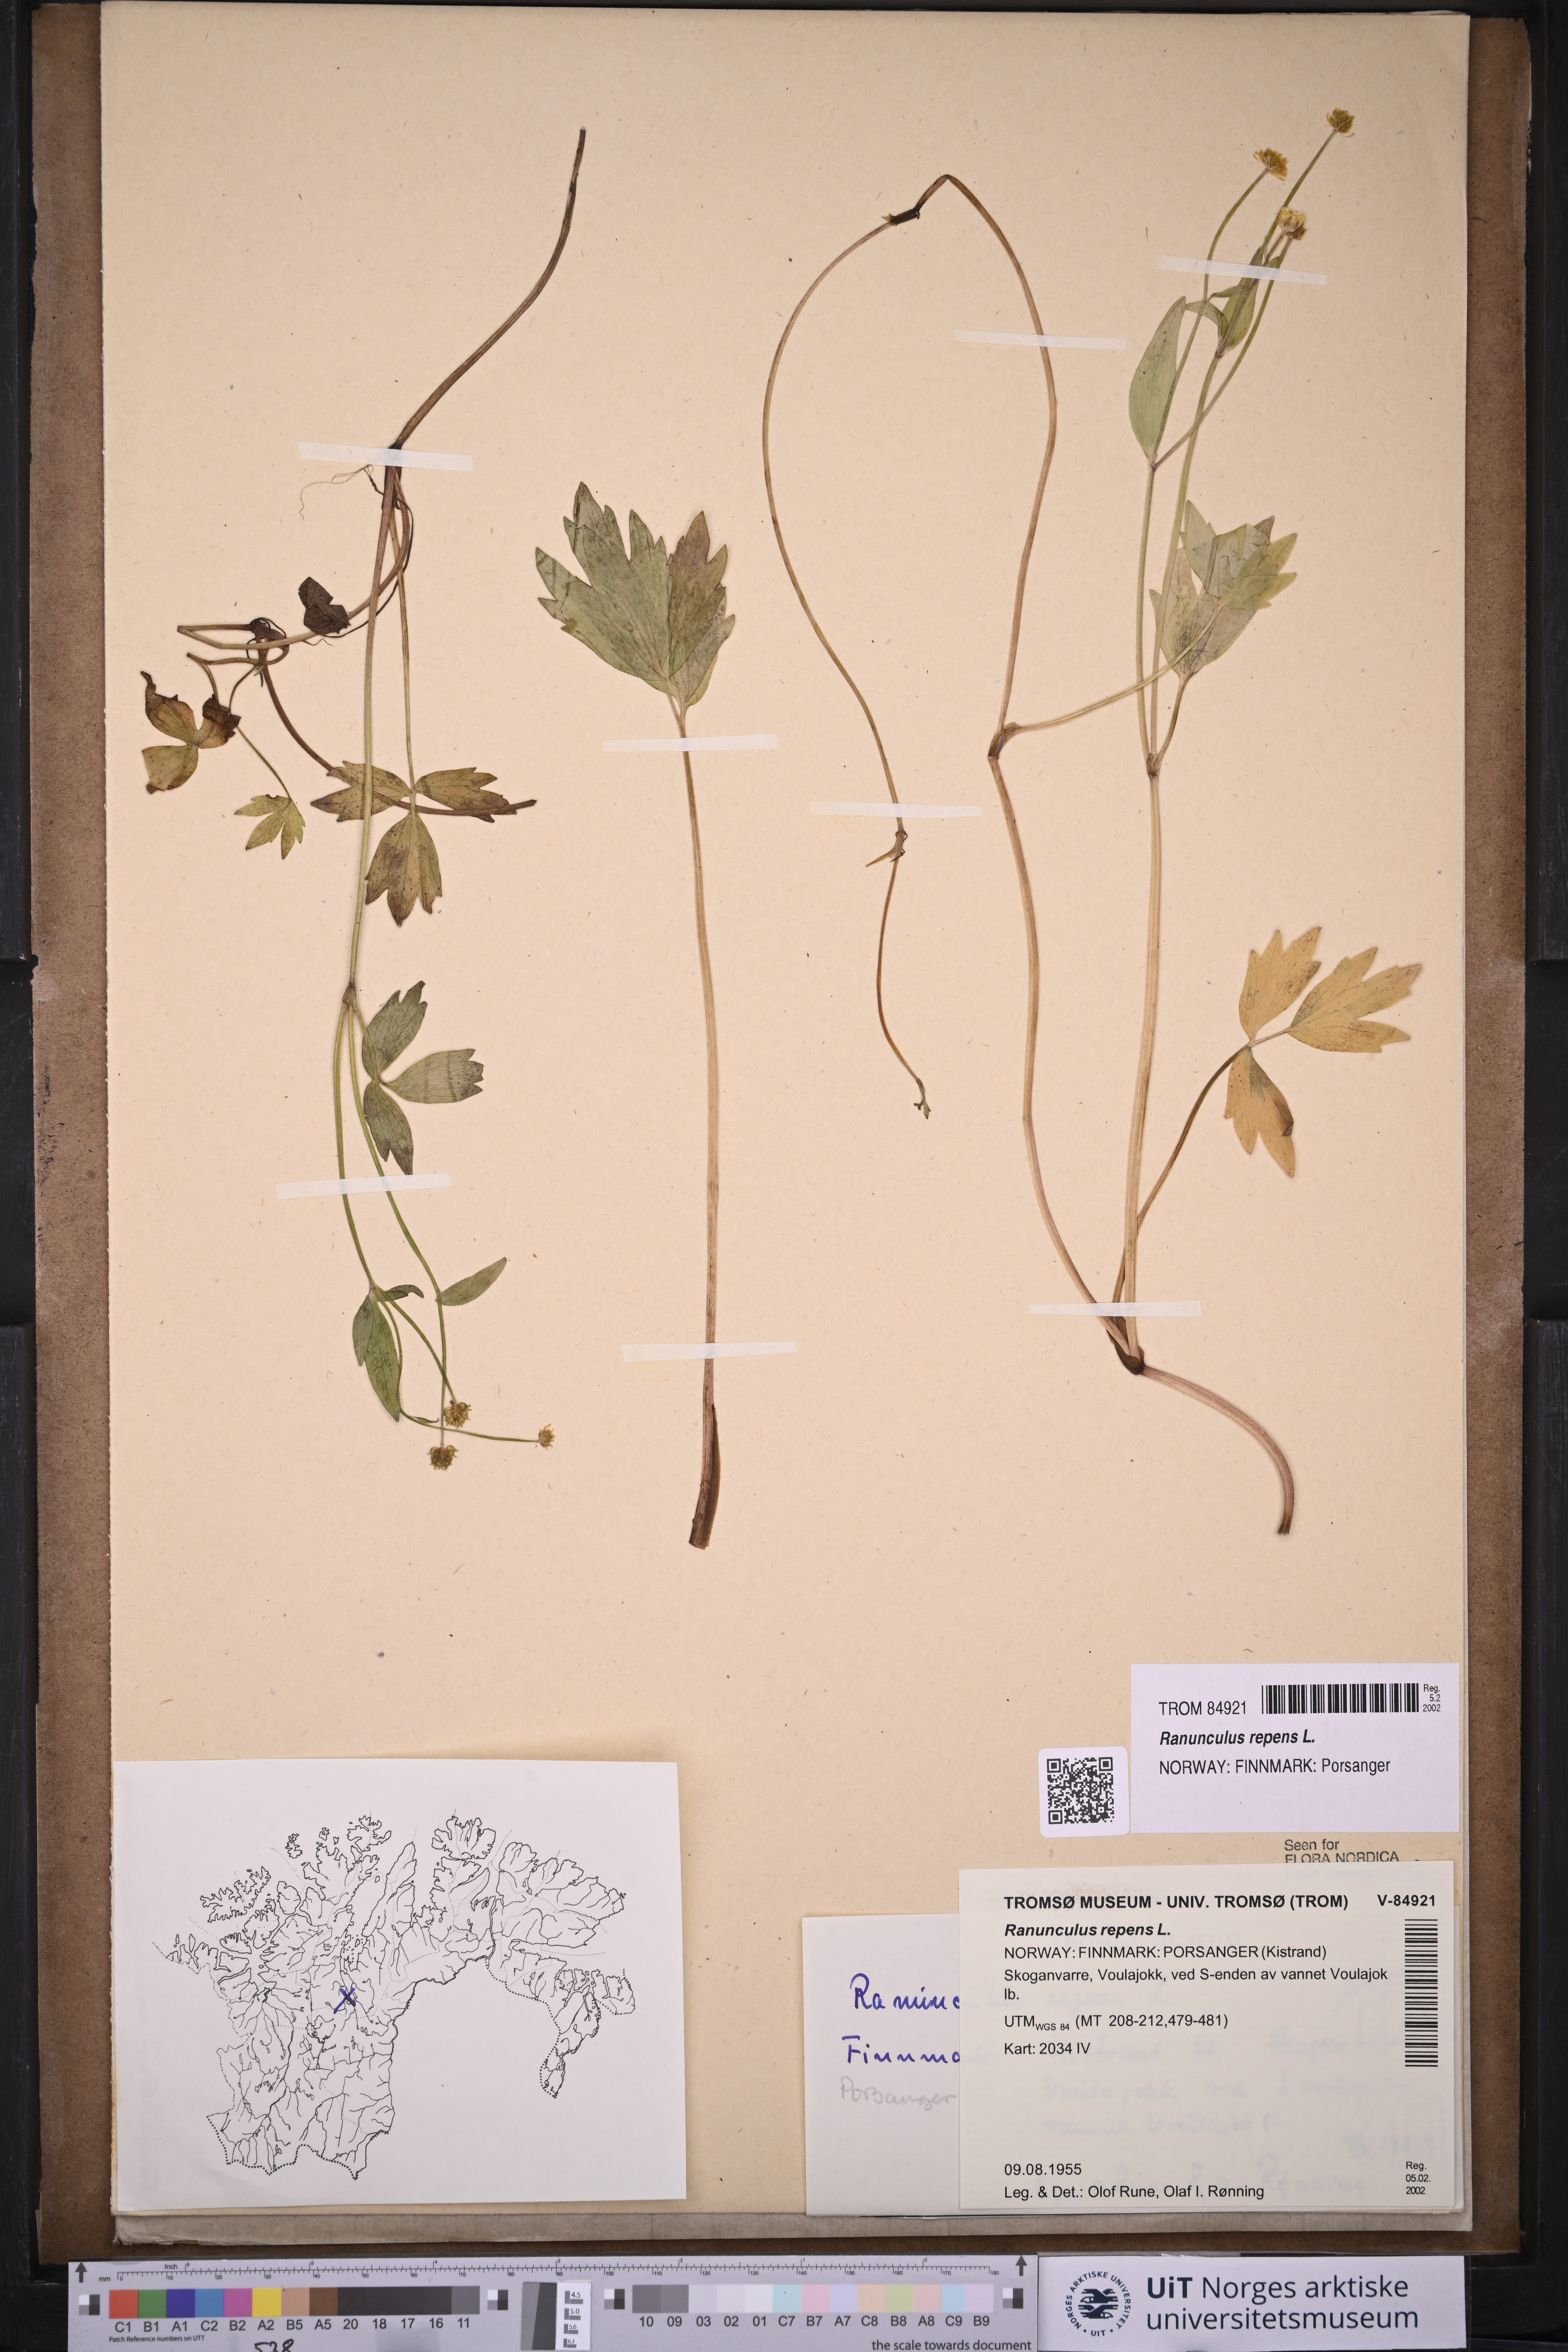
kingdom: Plantae
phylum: Tracheophyta
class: Magnoliopsida
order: Ranunculales
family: Ranunculaceae
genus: Ranunculus
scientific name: Ranunculus repens
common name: Creeping buttercup
